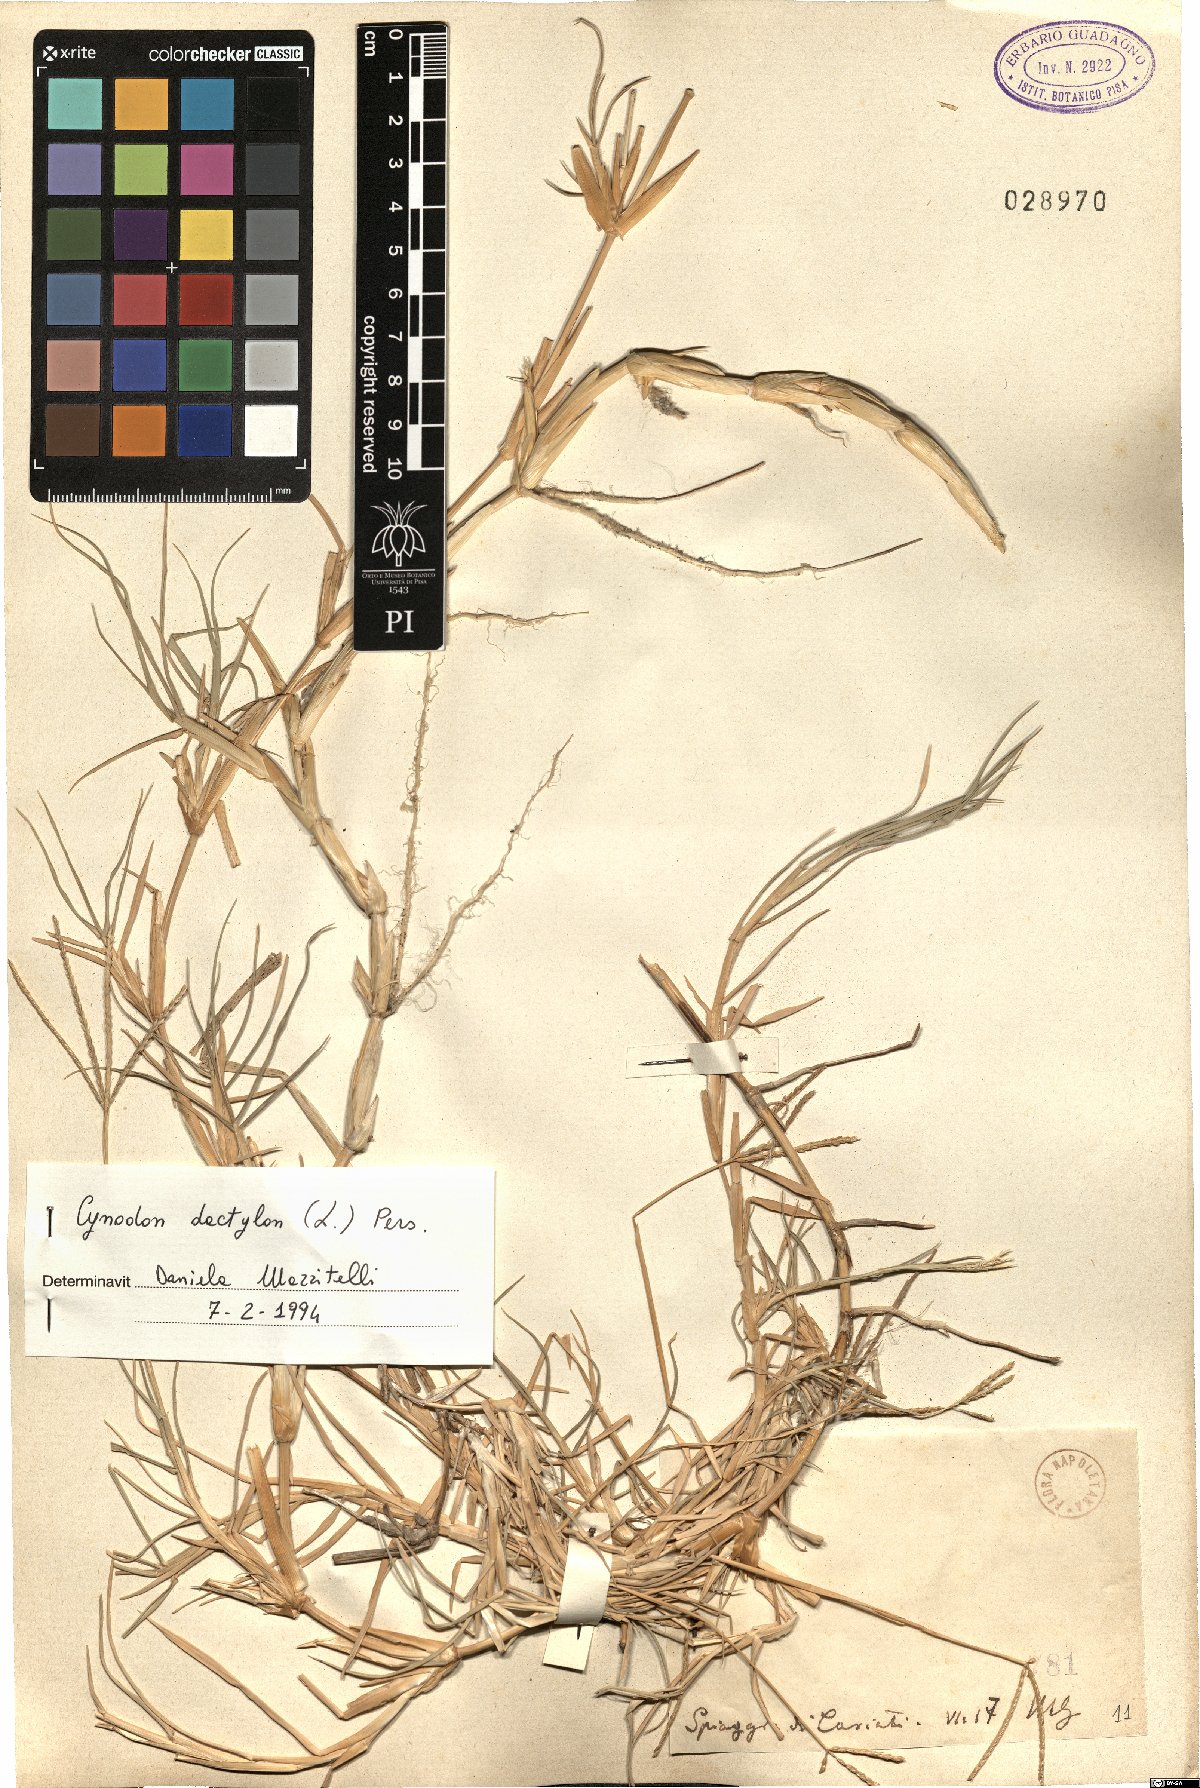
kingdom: Plantae
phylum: Tracheophyta
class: Liliopsida
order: Poales
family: Poaceae
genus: Cynodon
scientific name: Cynodon dactylon
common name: Bermuda grass
